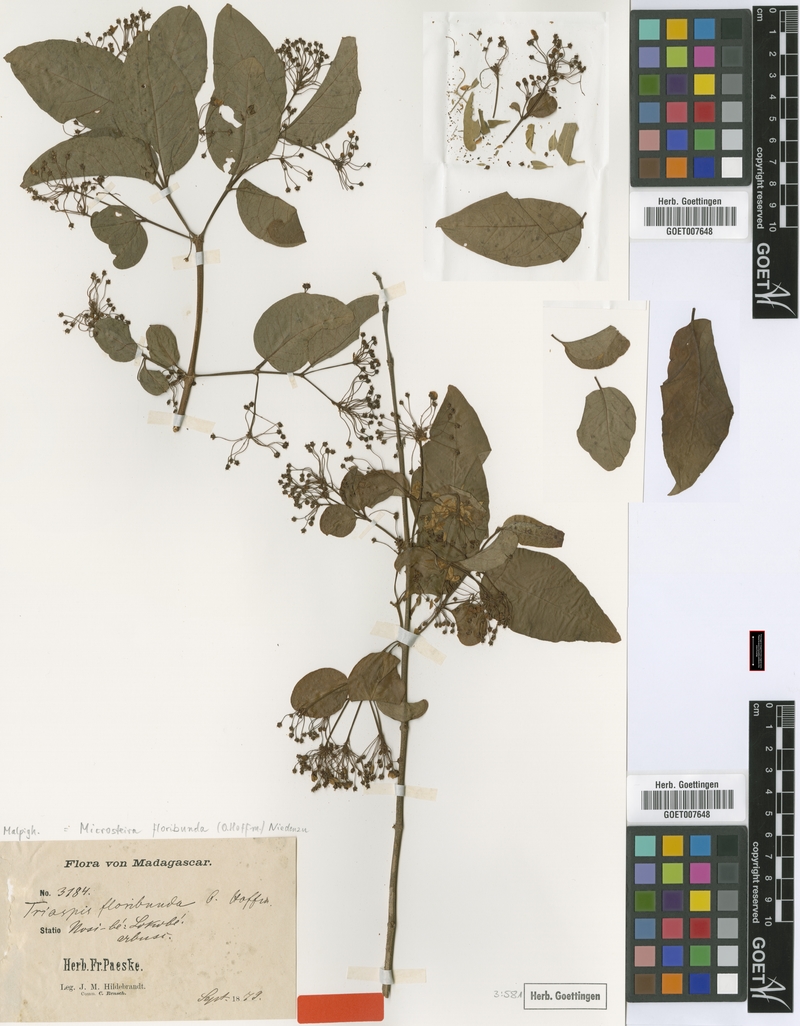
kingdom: Plantae
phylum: Tracheophyta
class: Magnoliopsida
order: Malpighiales
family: Malpighiaceae
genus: Microsteira
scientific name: Microsteira floribunda
